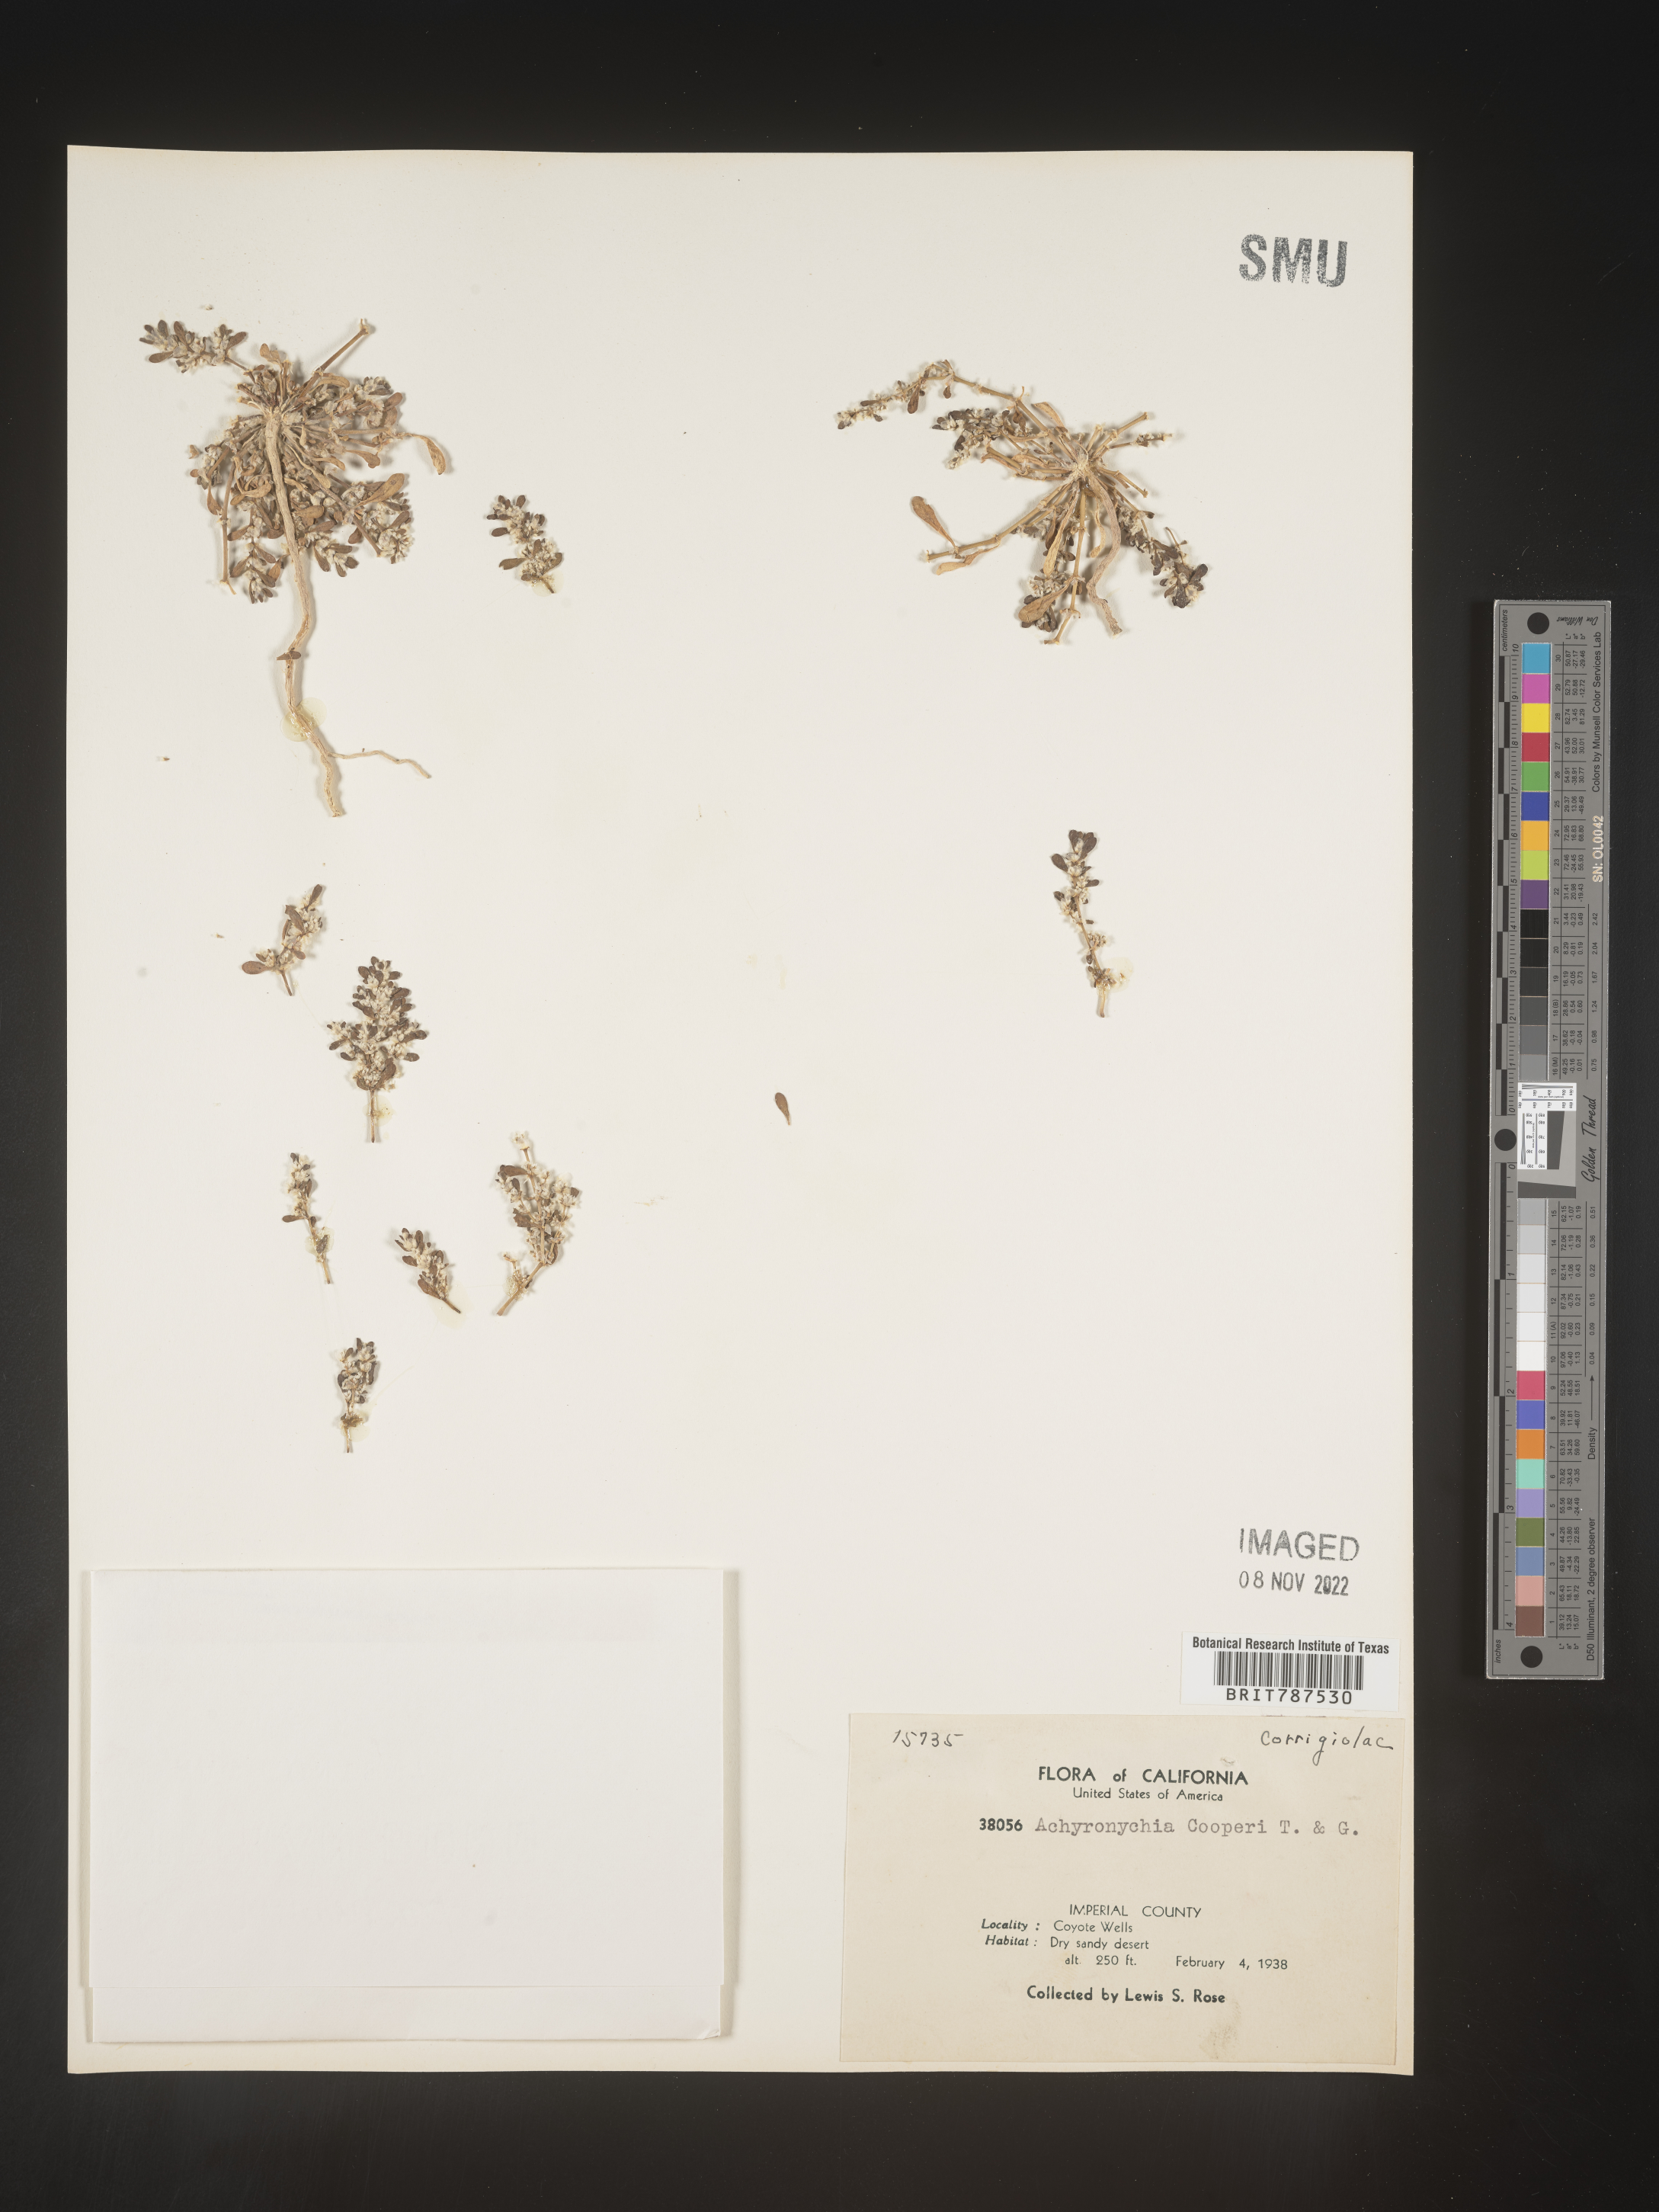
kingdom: Plantae
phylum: Tracheophyta
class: Magnoliopsida
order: Caryophyllales
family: Caryophyllaceae
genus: Achyronychia
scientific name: Achyronychia
